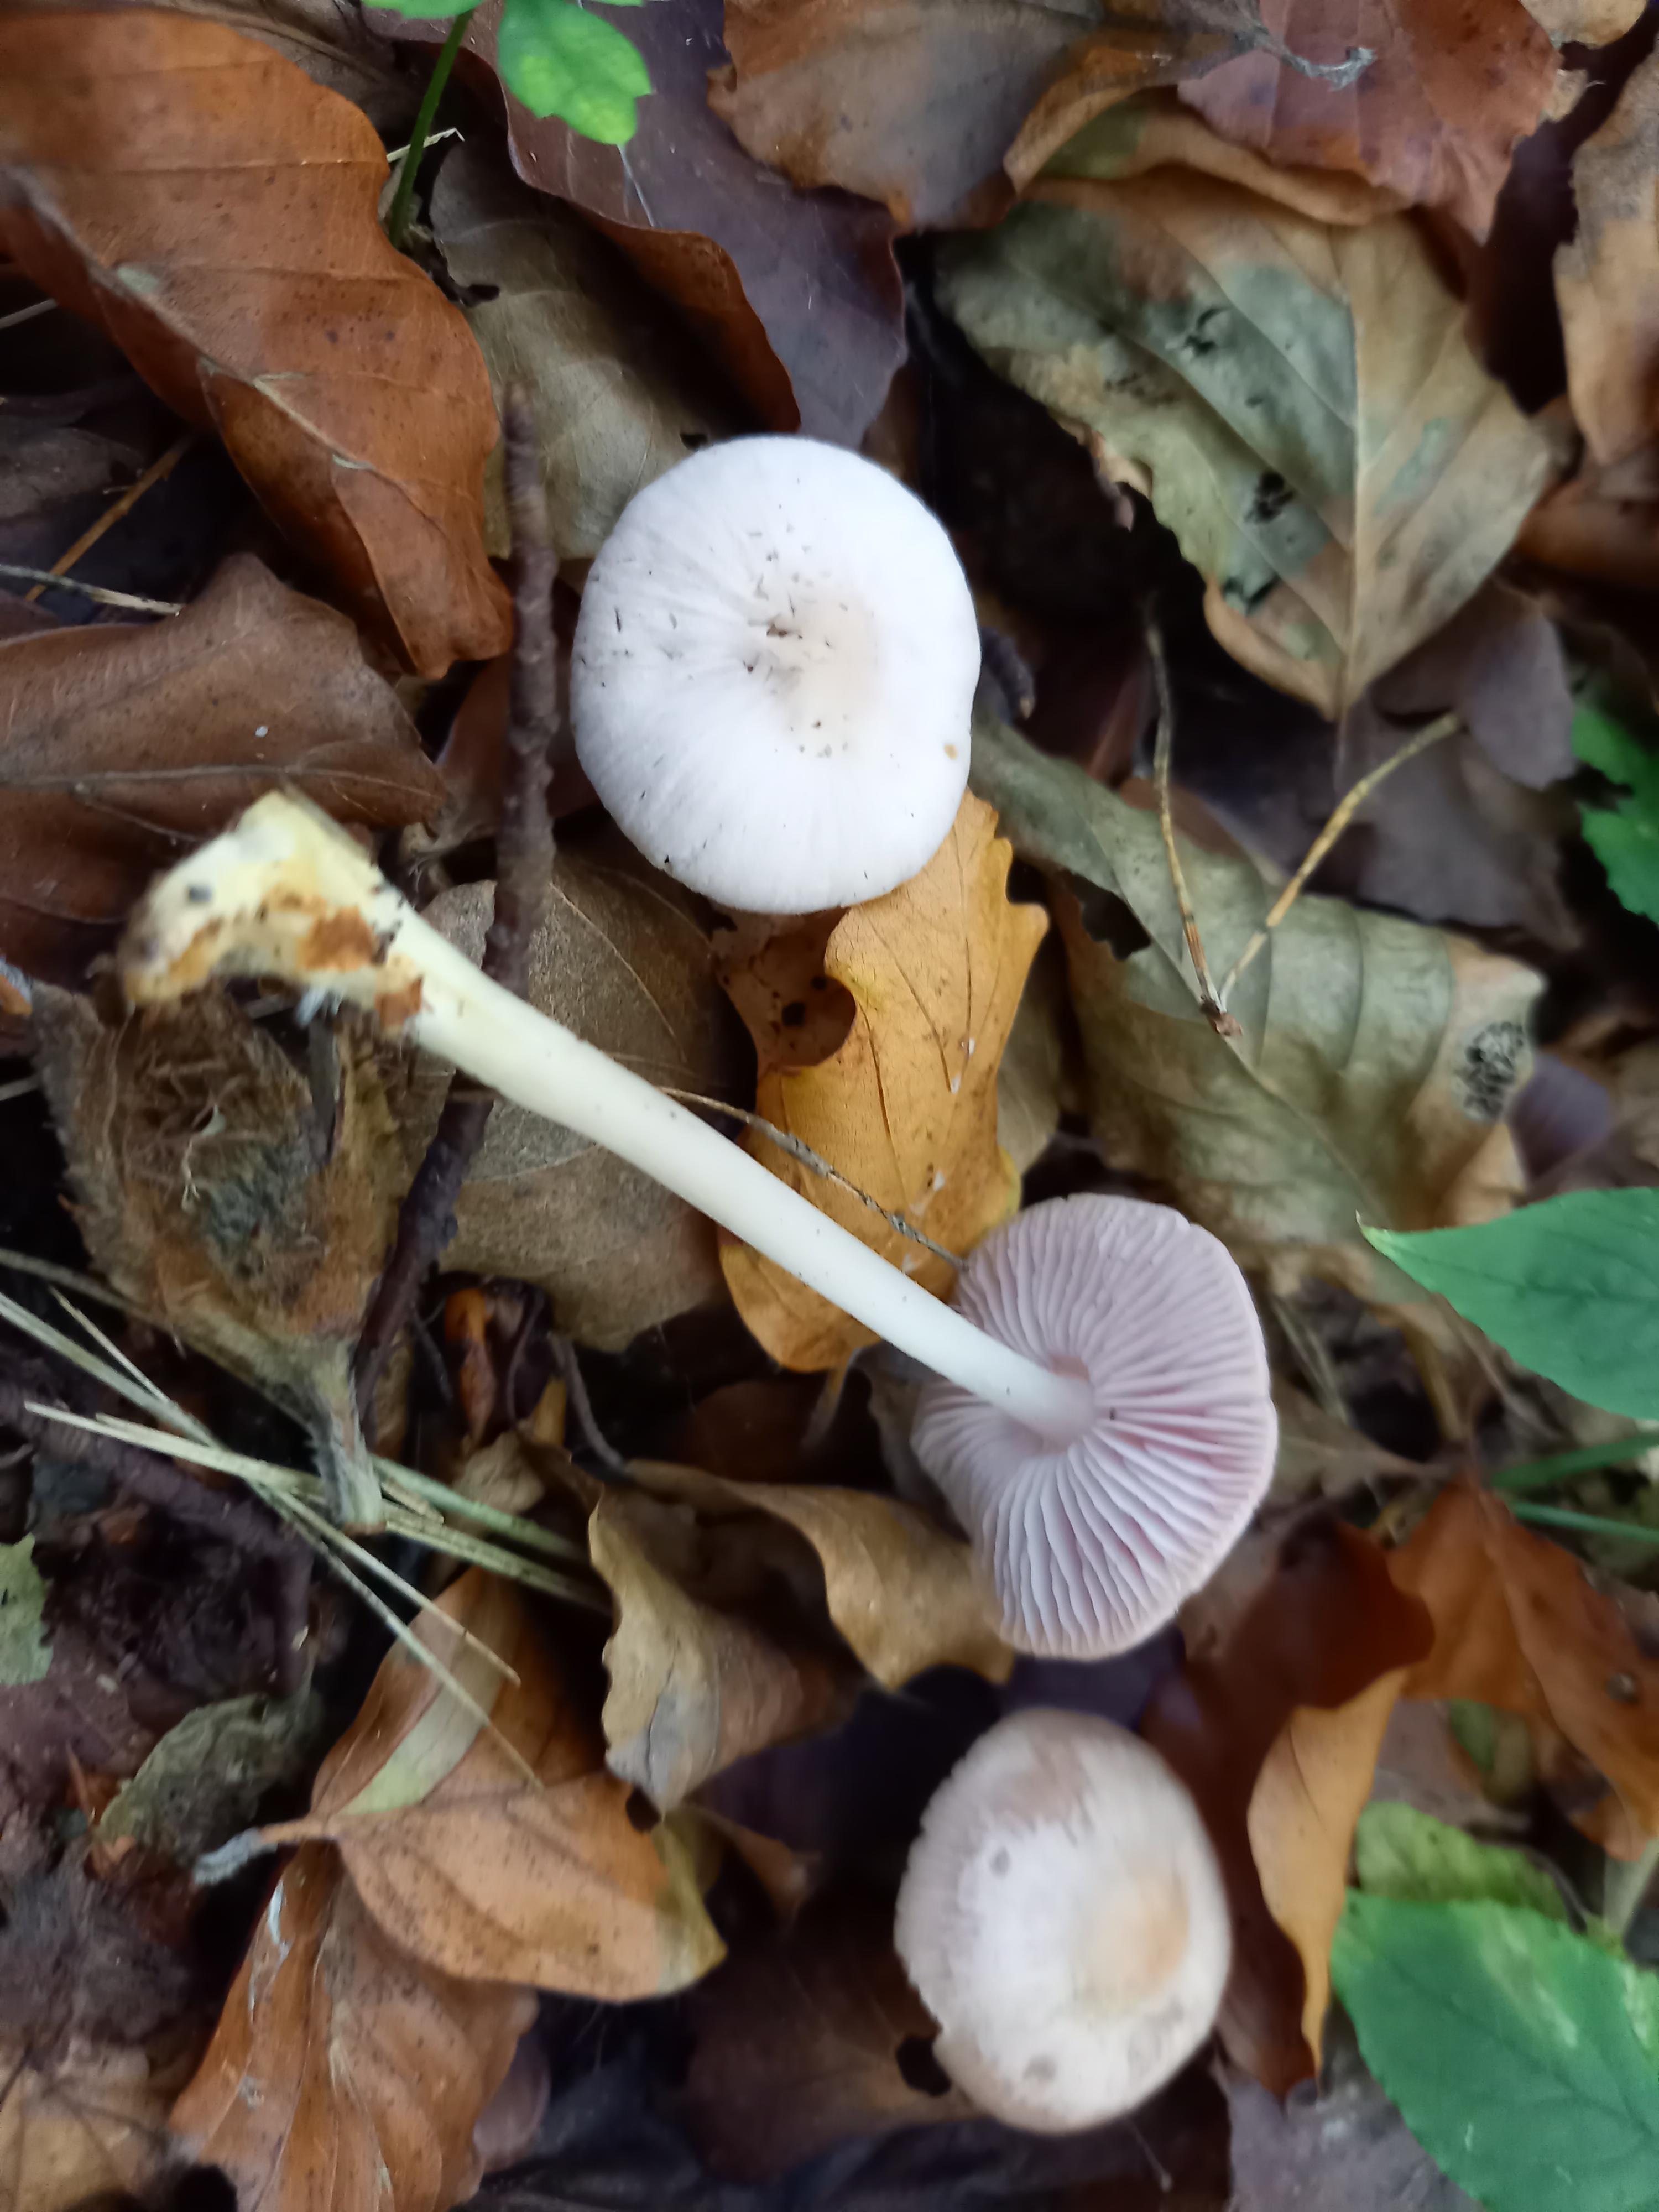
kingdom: Fungi
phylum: Basidiomycota
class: Agaricomycetes
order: Agaricales
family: Mycenaceae
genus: Mycena
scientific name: Mycena rosea
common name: rosa huesvamp
